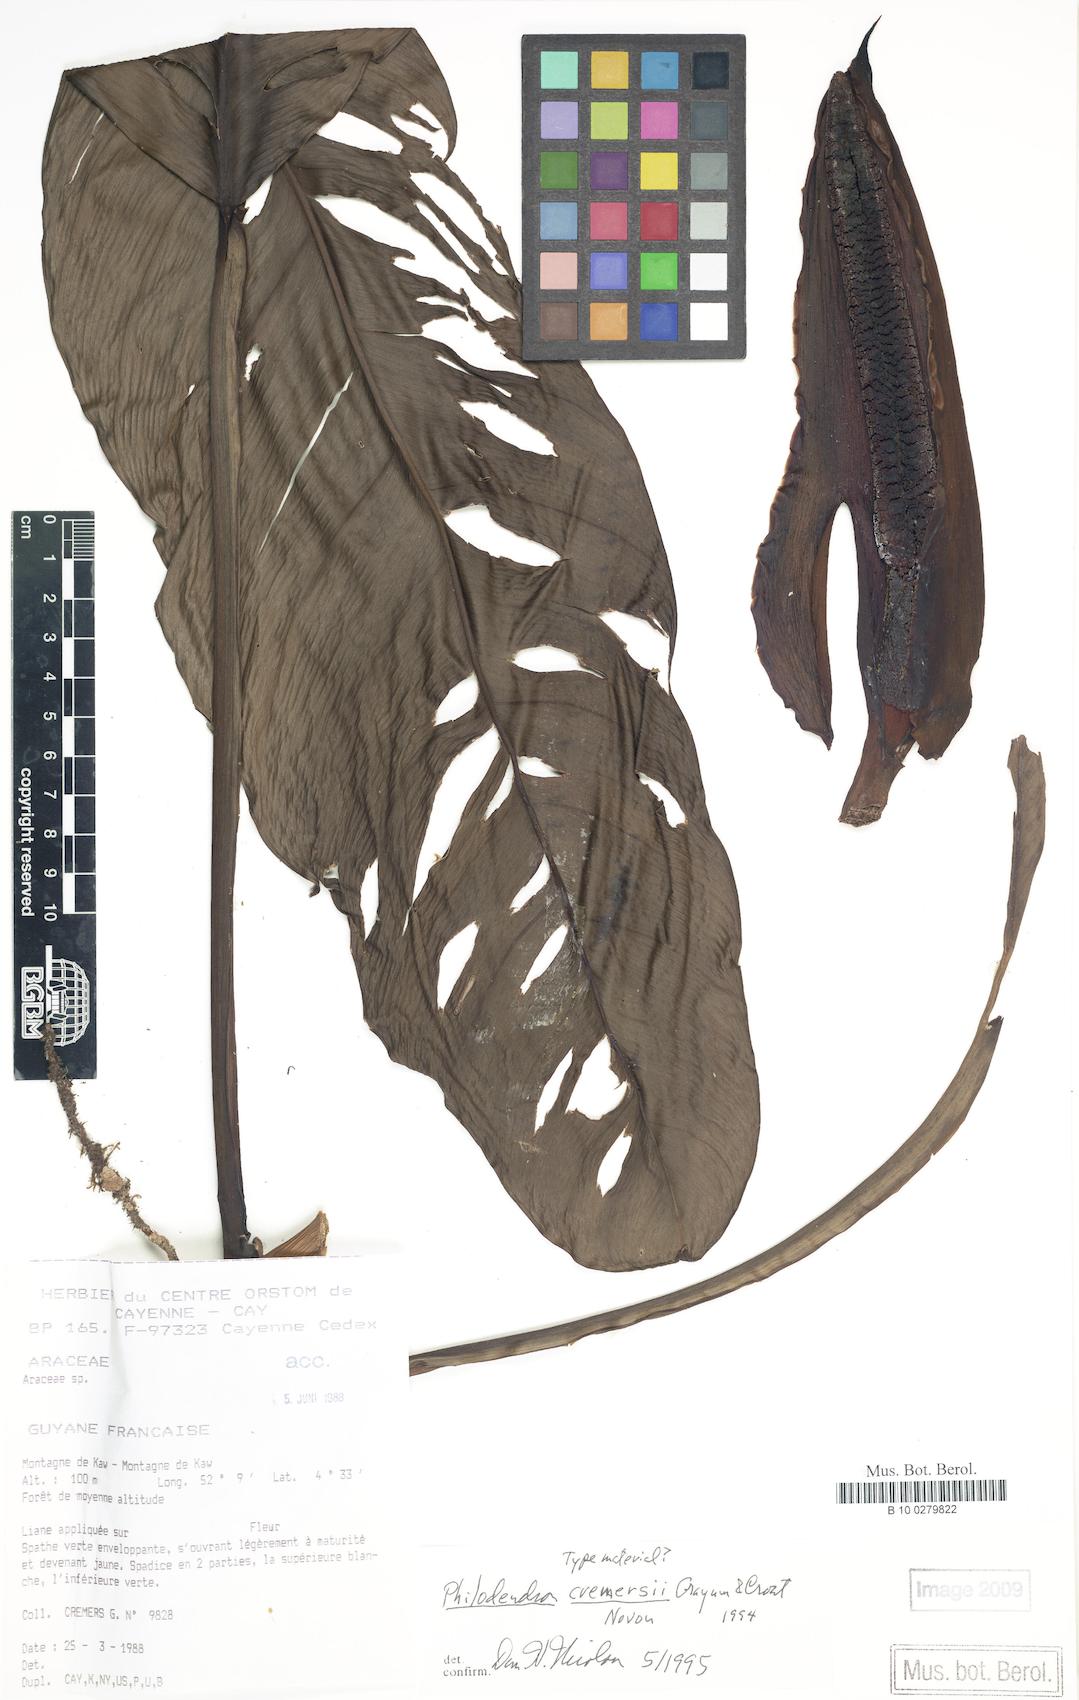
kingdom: Plantae
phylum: Tracheophyta
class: Liliopsida
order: Alismatales
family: Araceae
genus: Philodendron
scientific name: Philodendron cremersii
